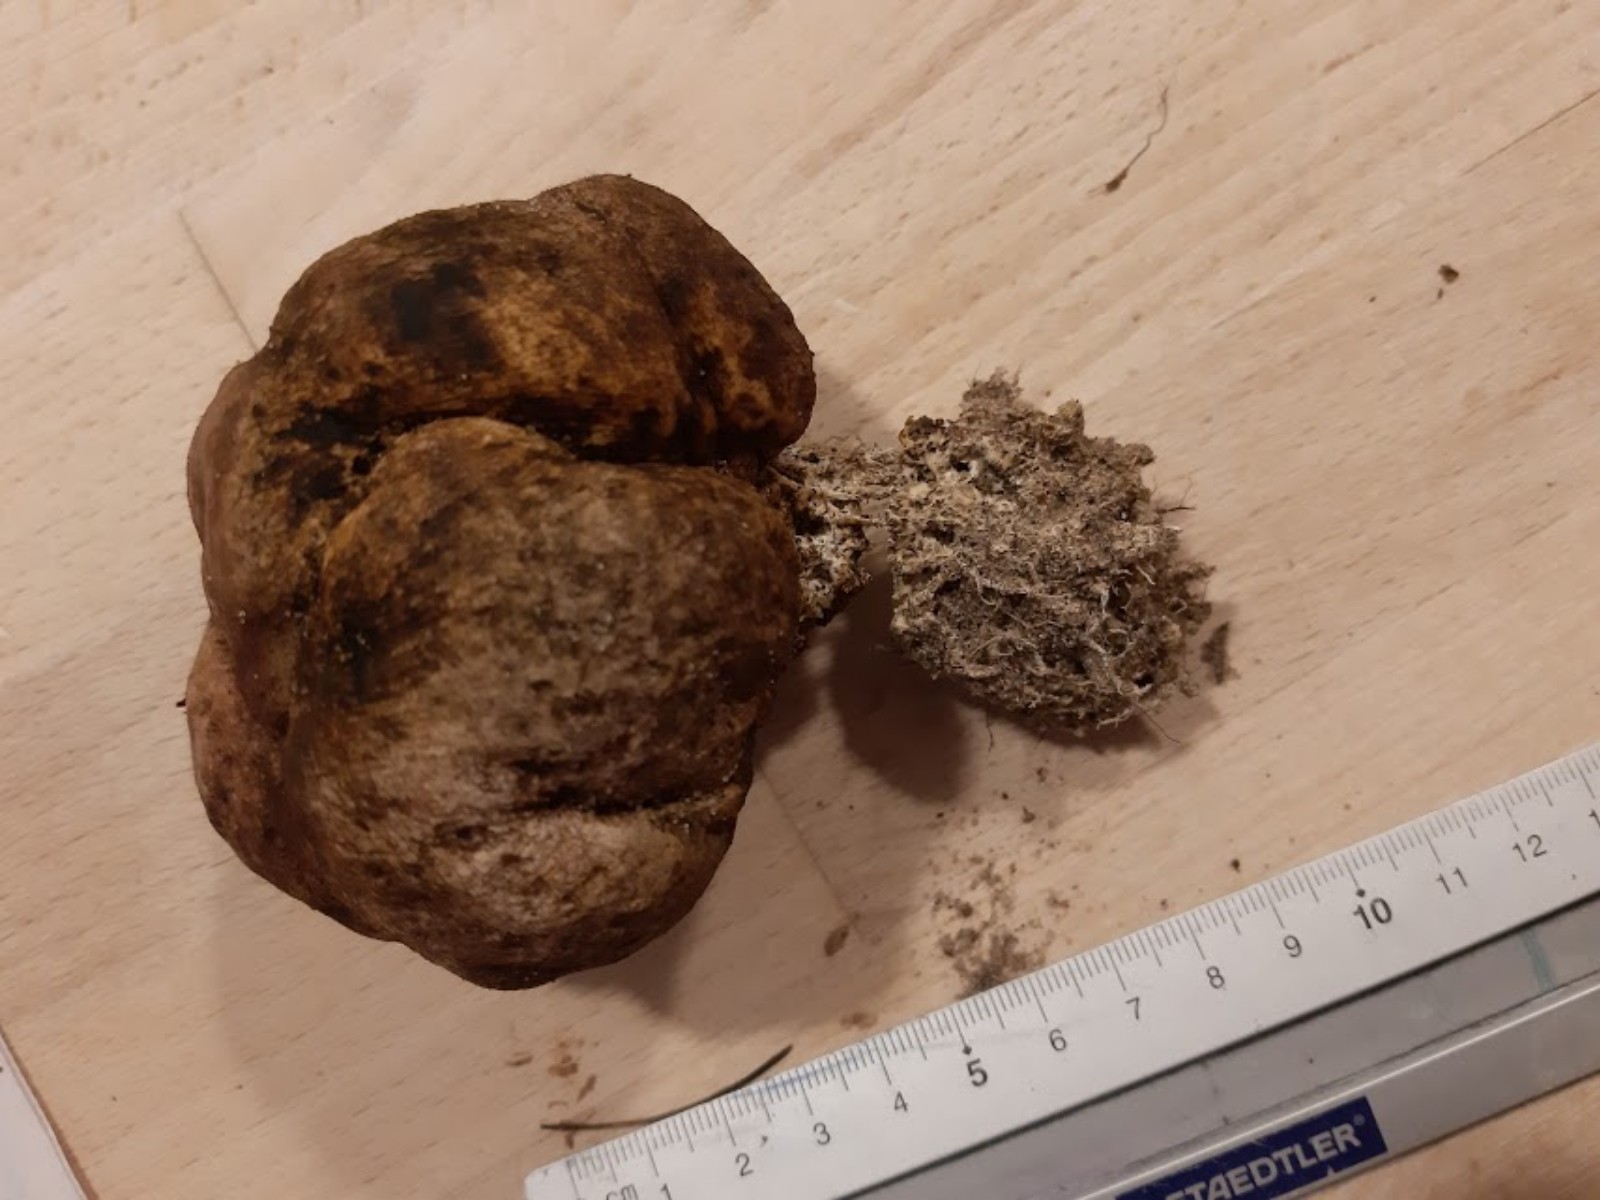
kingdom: Fungi
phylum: Basidiomycota
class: Agaricomycetes
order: Boletales
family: Sclerodermataceae
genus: Scleroderma
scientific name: Scleroderma
